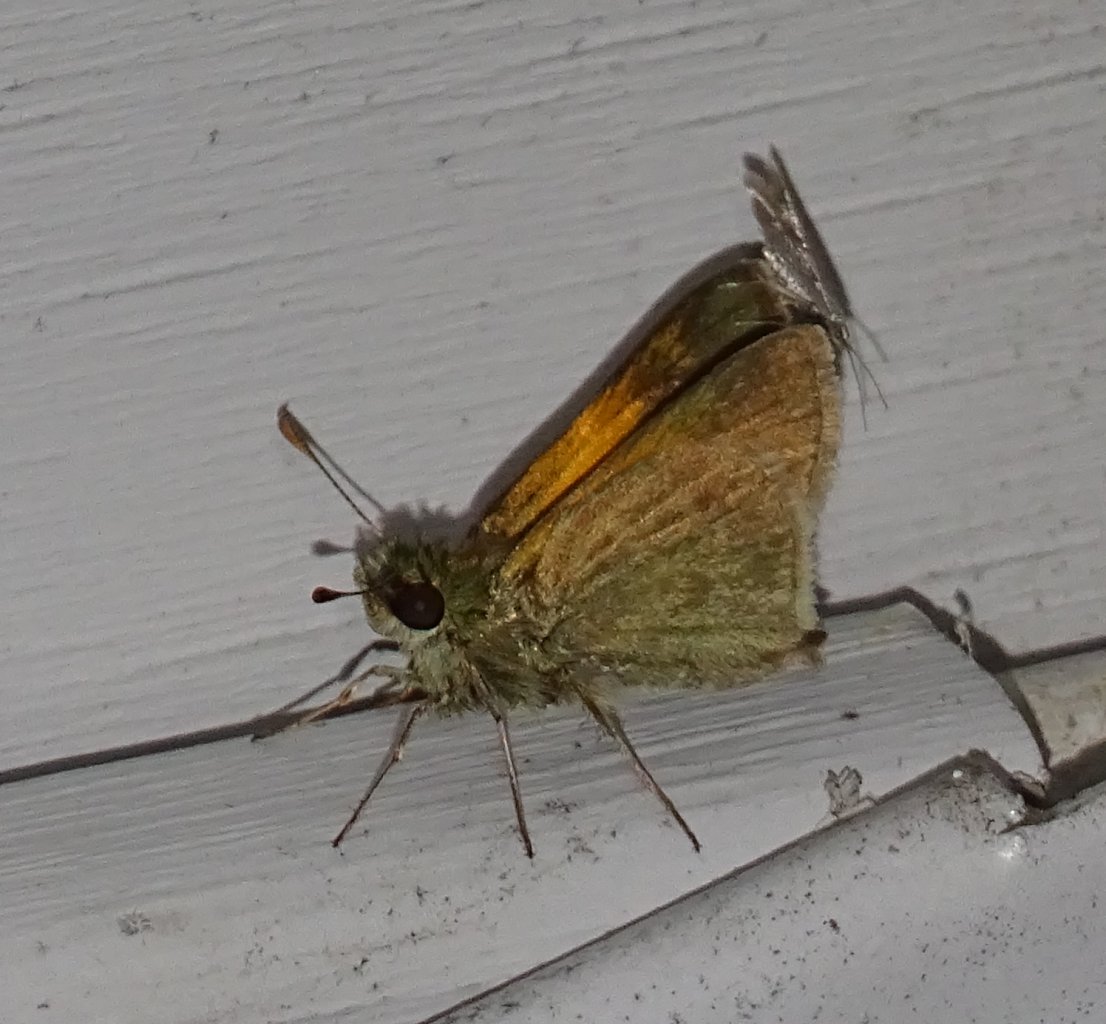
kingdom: Animalia
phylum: Arthropoda
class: Insecta
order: Lepidoptera
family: Hesperiidae
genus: Polites
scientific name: Polites themistocles
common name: Tawny-edged Skipper
